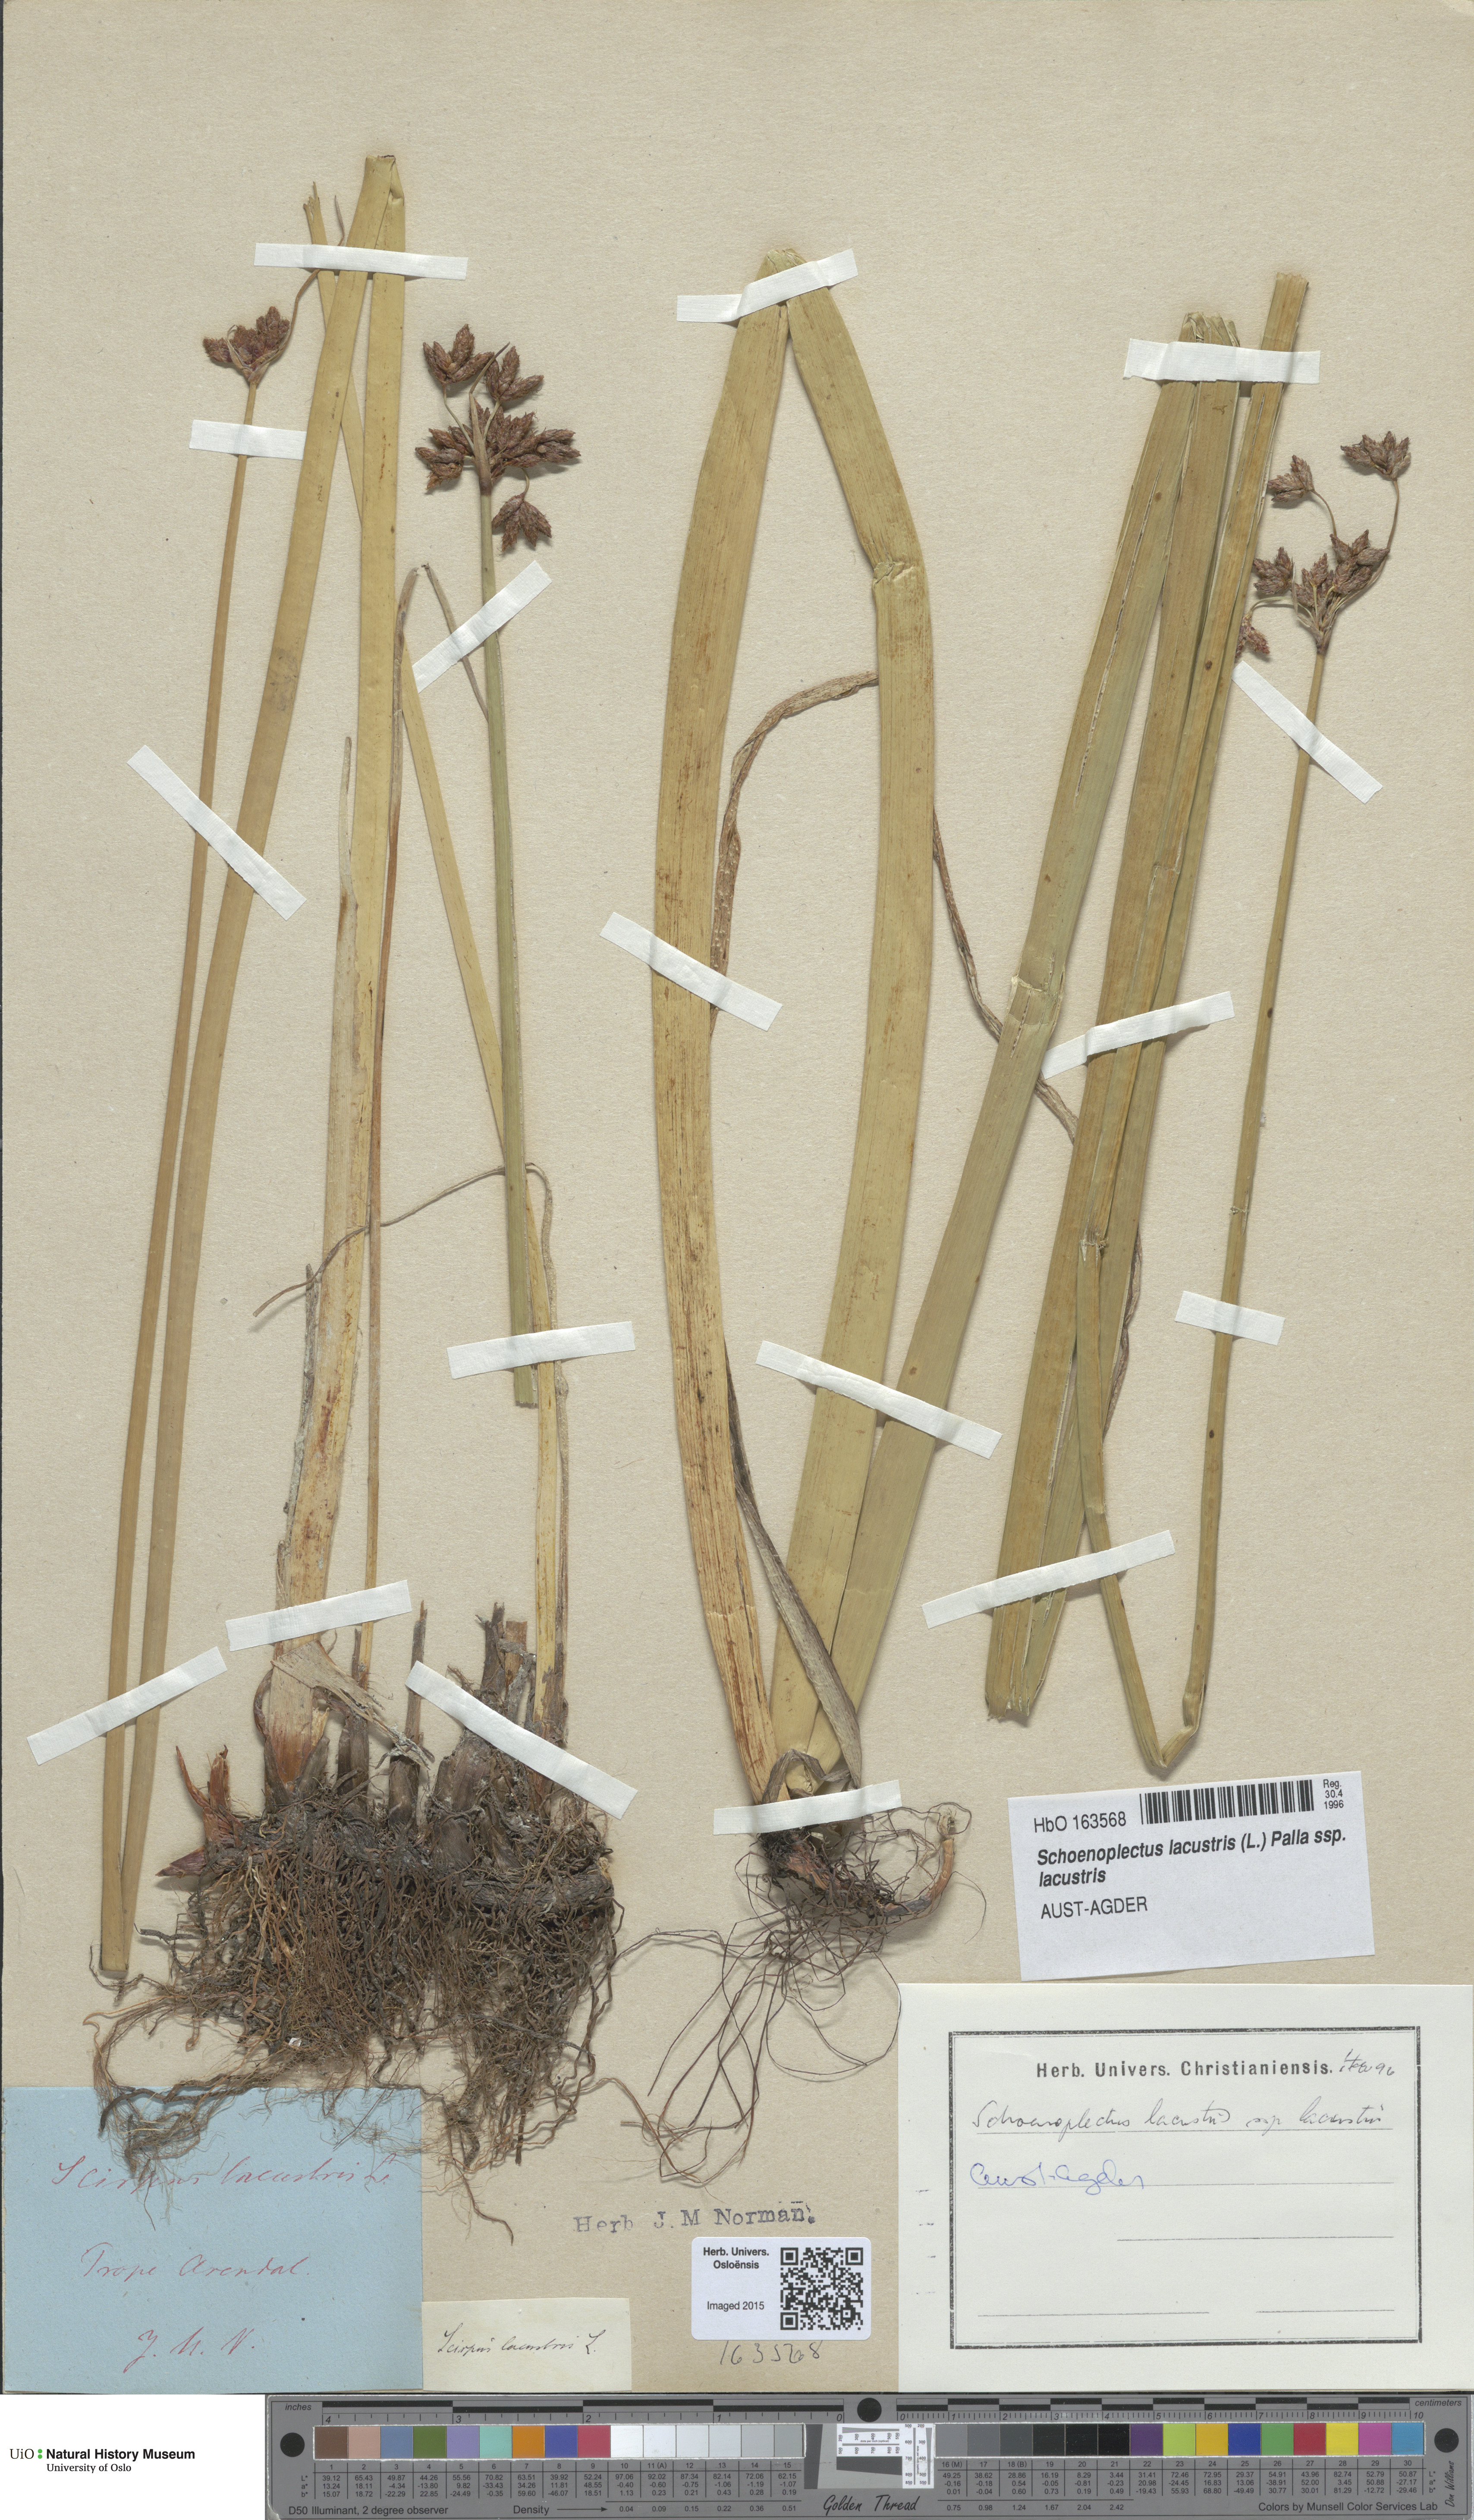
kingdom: Plantae
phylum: Tracheophyta
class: Liliopsida
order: Poales
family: Cyperaceae
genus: Schoenoplectus
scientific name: Schoenoplectus lacustris
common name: Common club-rush
